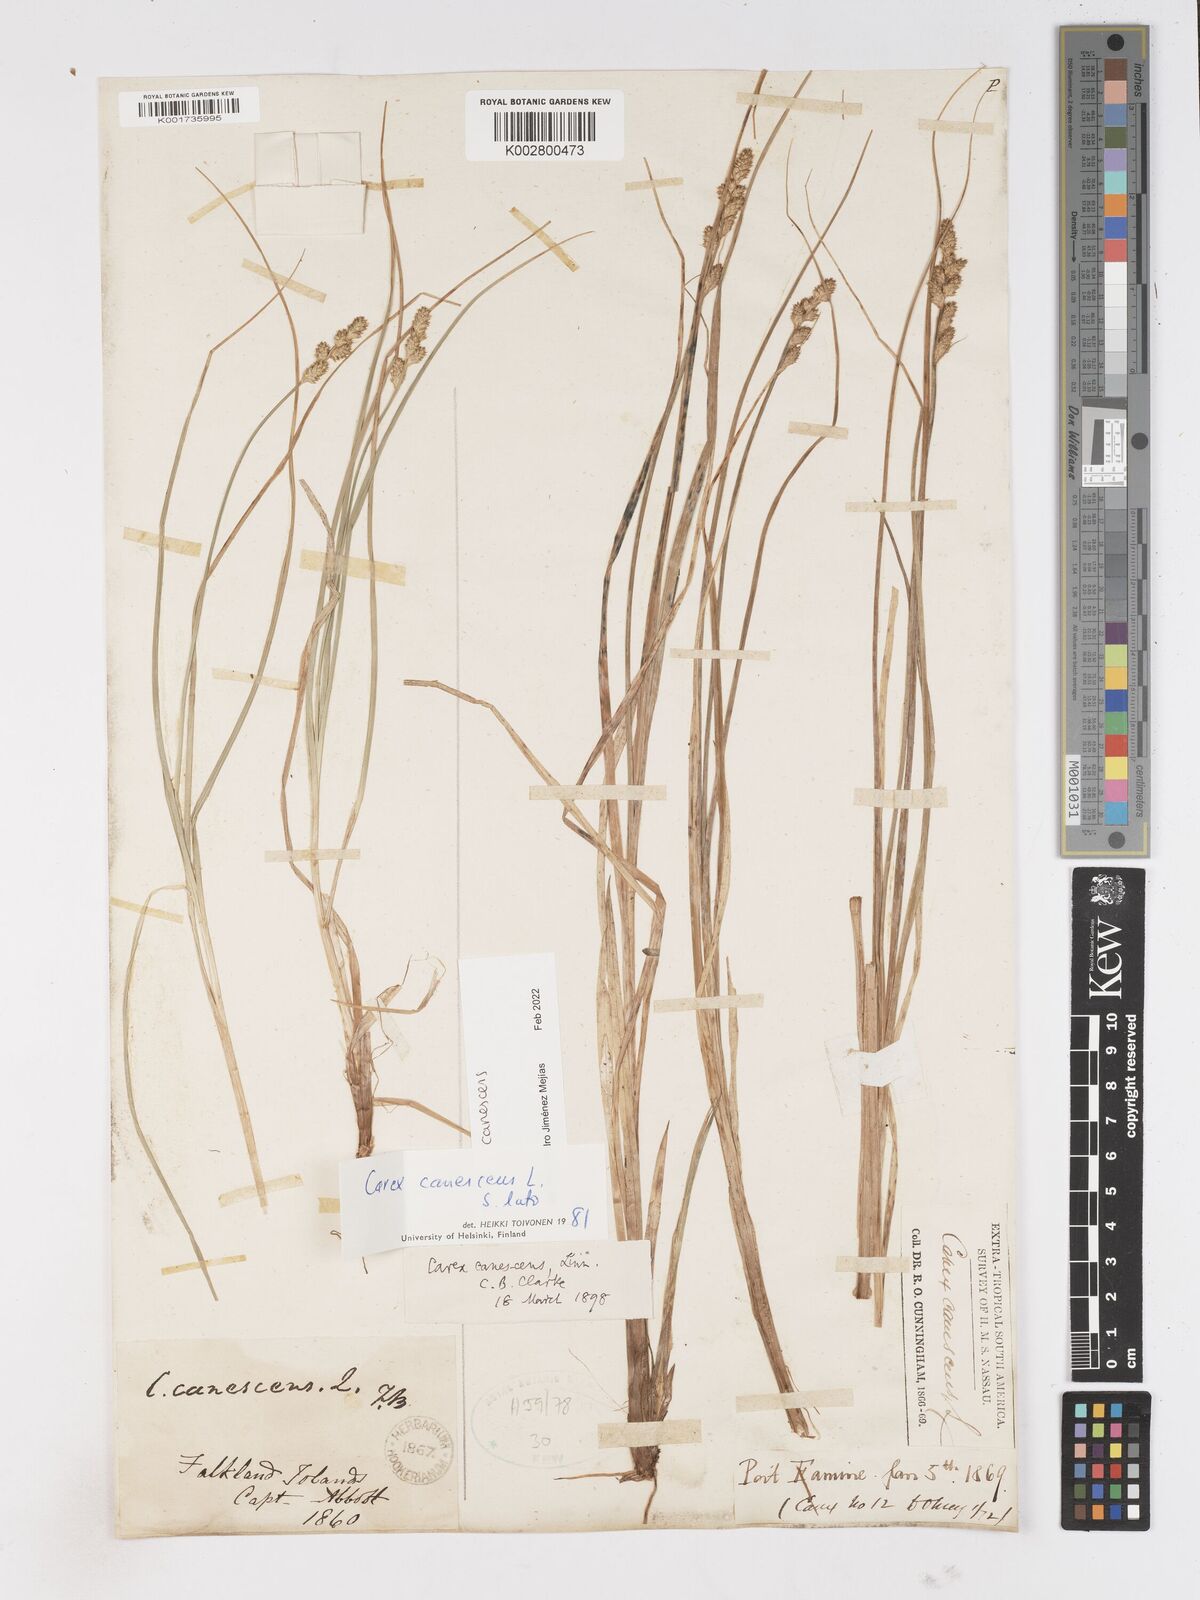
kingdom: Plantae
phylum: Tracheophyta
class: Liliopsida
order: Poales
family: Cyperaceae
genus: Carex
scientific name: Carex curta
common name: White sedge
